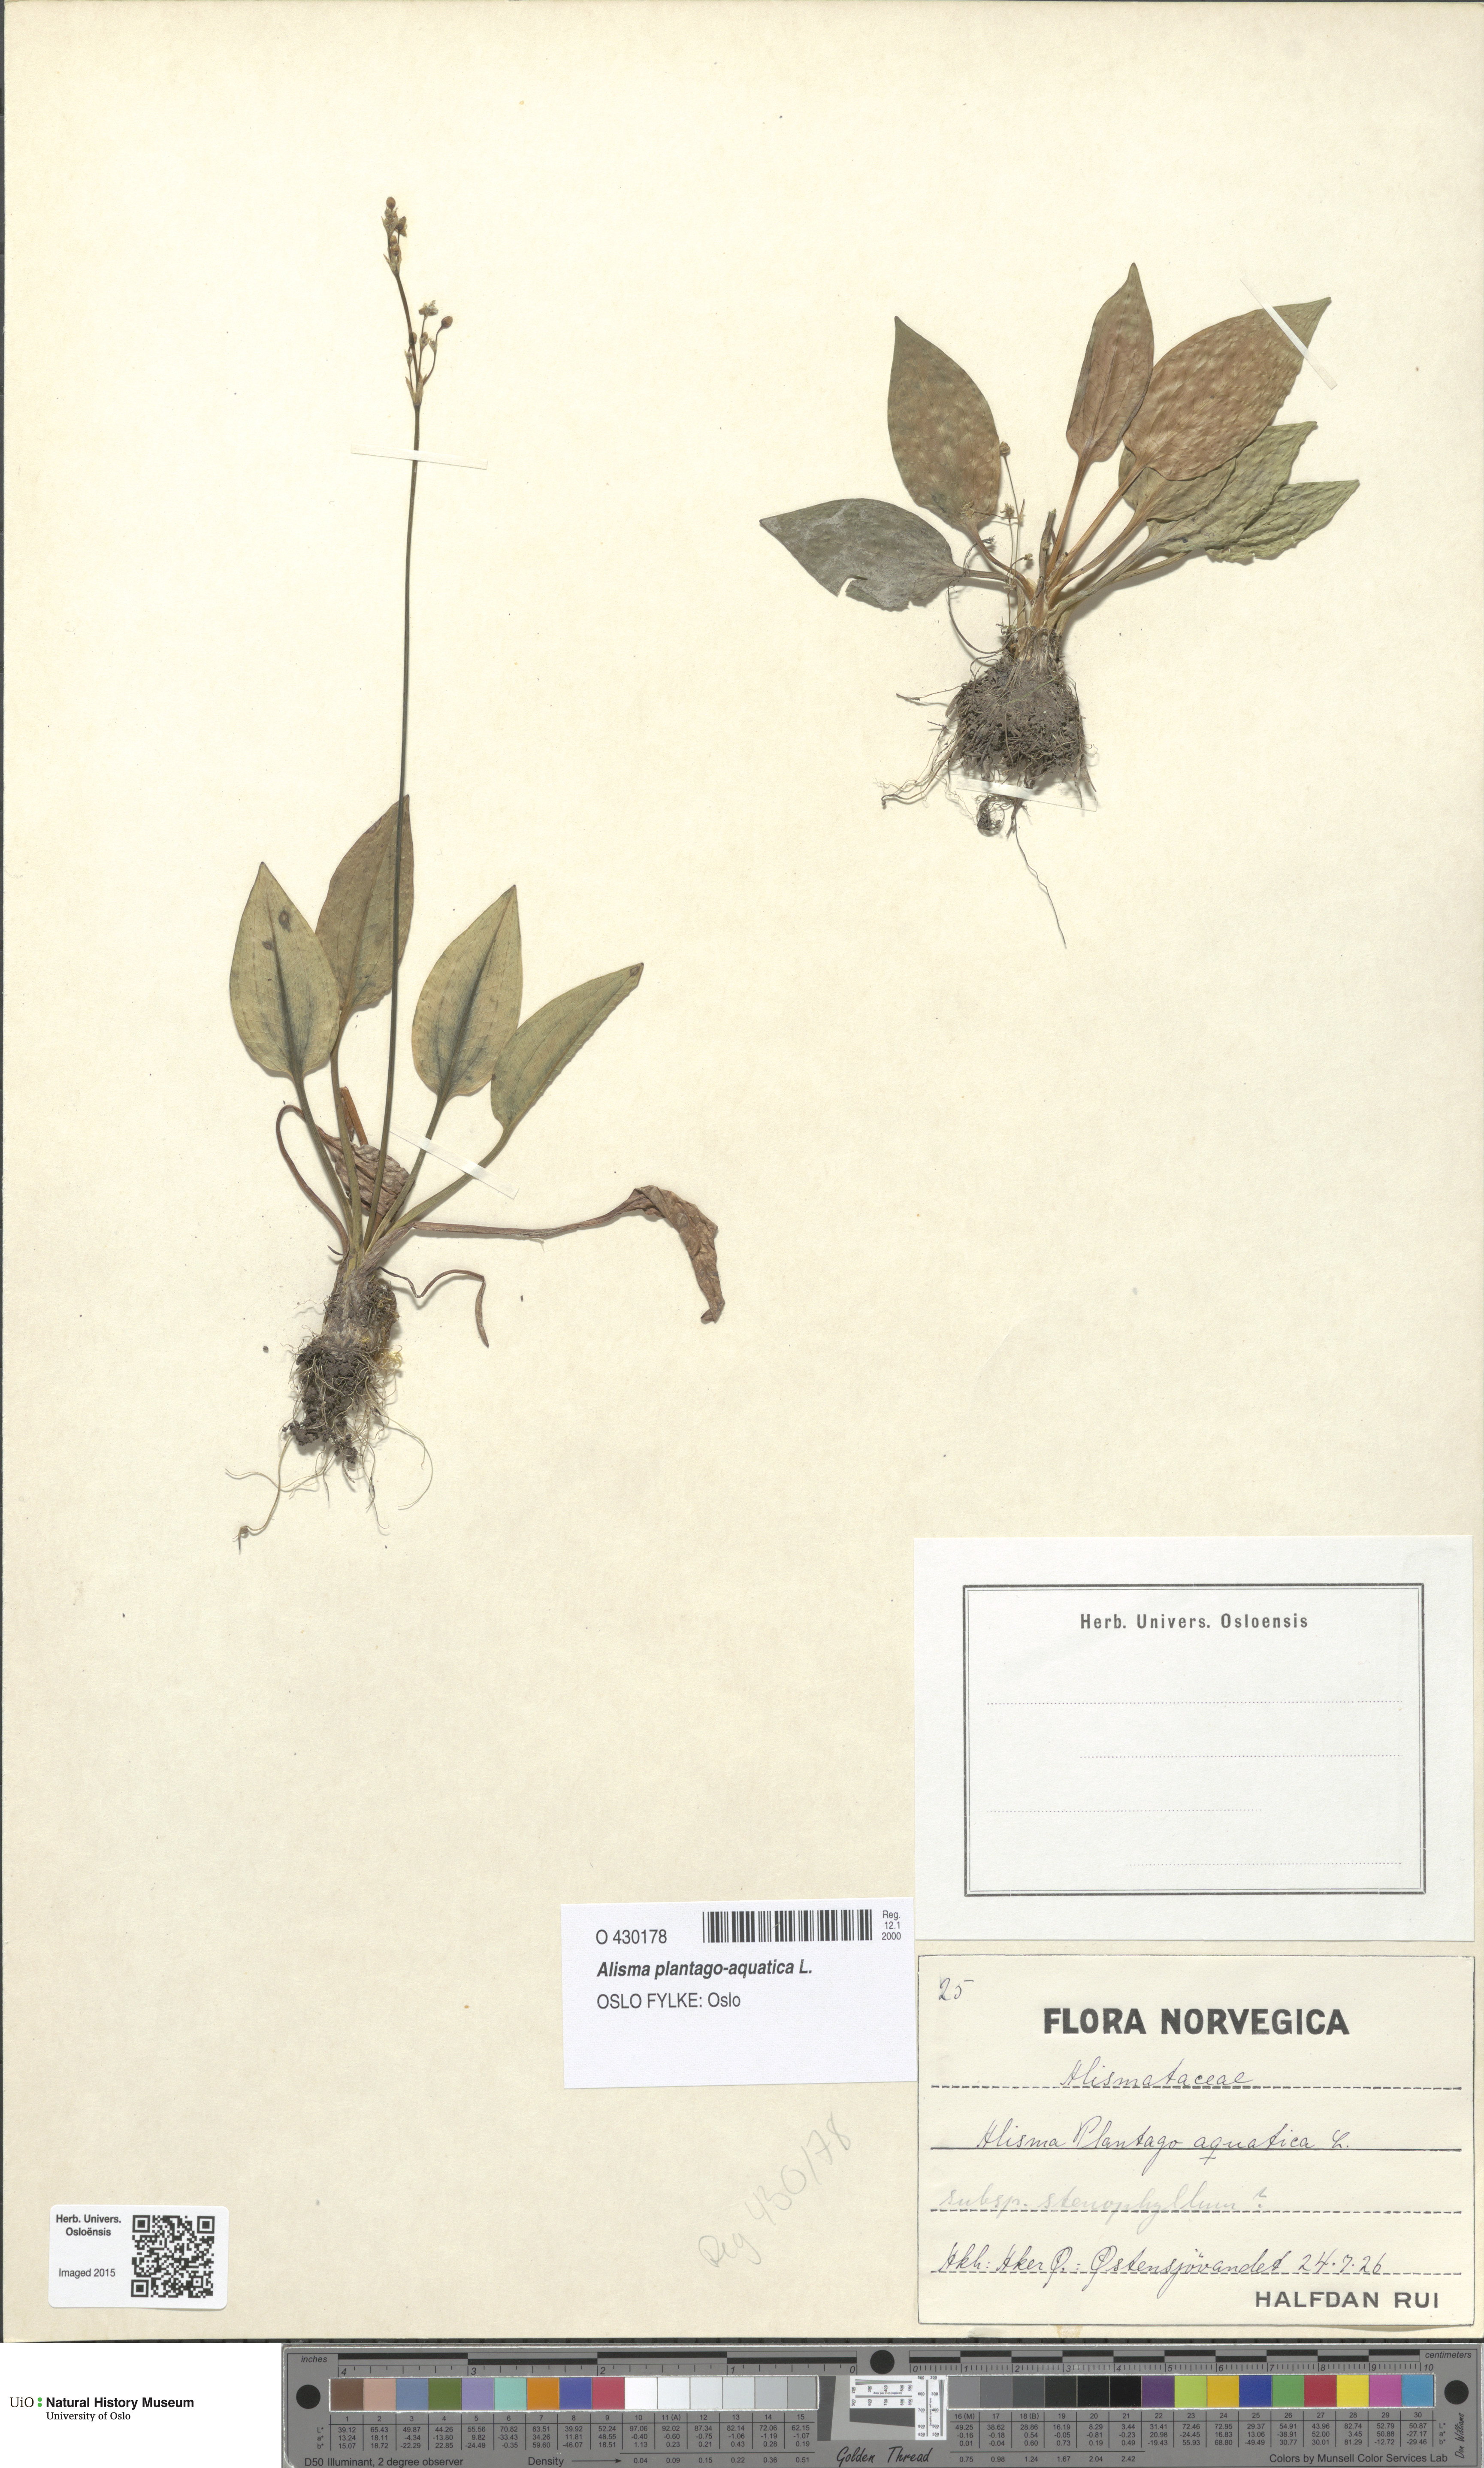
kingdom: Plantae
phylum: Tracheophyta
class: Liliopsida
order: Alismatales
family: Alismataceae
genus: Alisma
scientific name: Alisma plantago-aquatica
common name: Water-plantain
